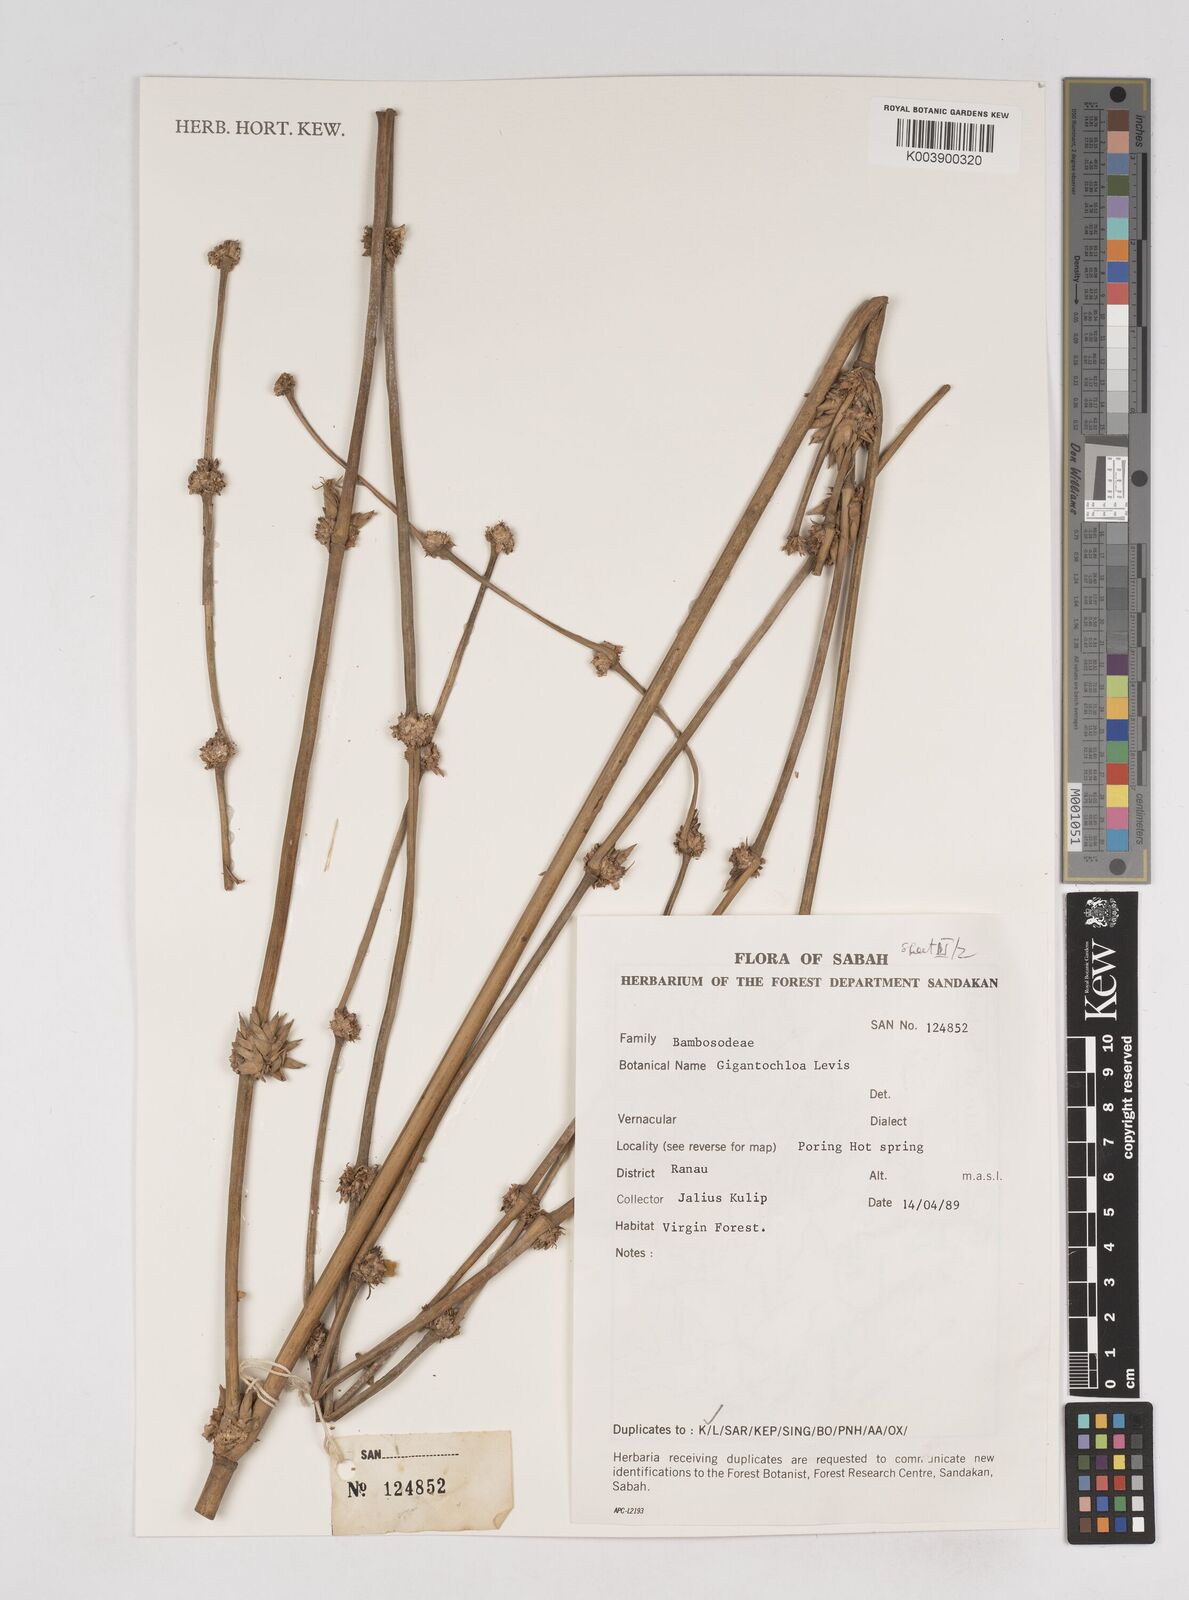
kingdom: Plantae
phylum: Tracheophyta
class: Liliopsida
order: Poales
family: Poaceae
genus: Gigantochloa
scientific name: Gigantochloa levis
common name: Smooth-shoot gigantochloa
